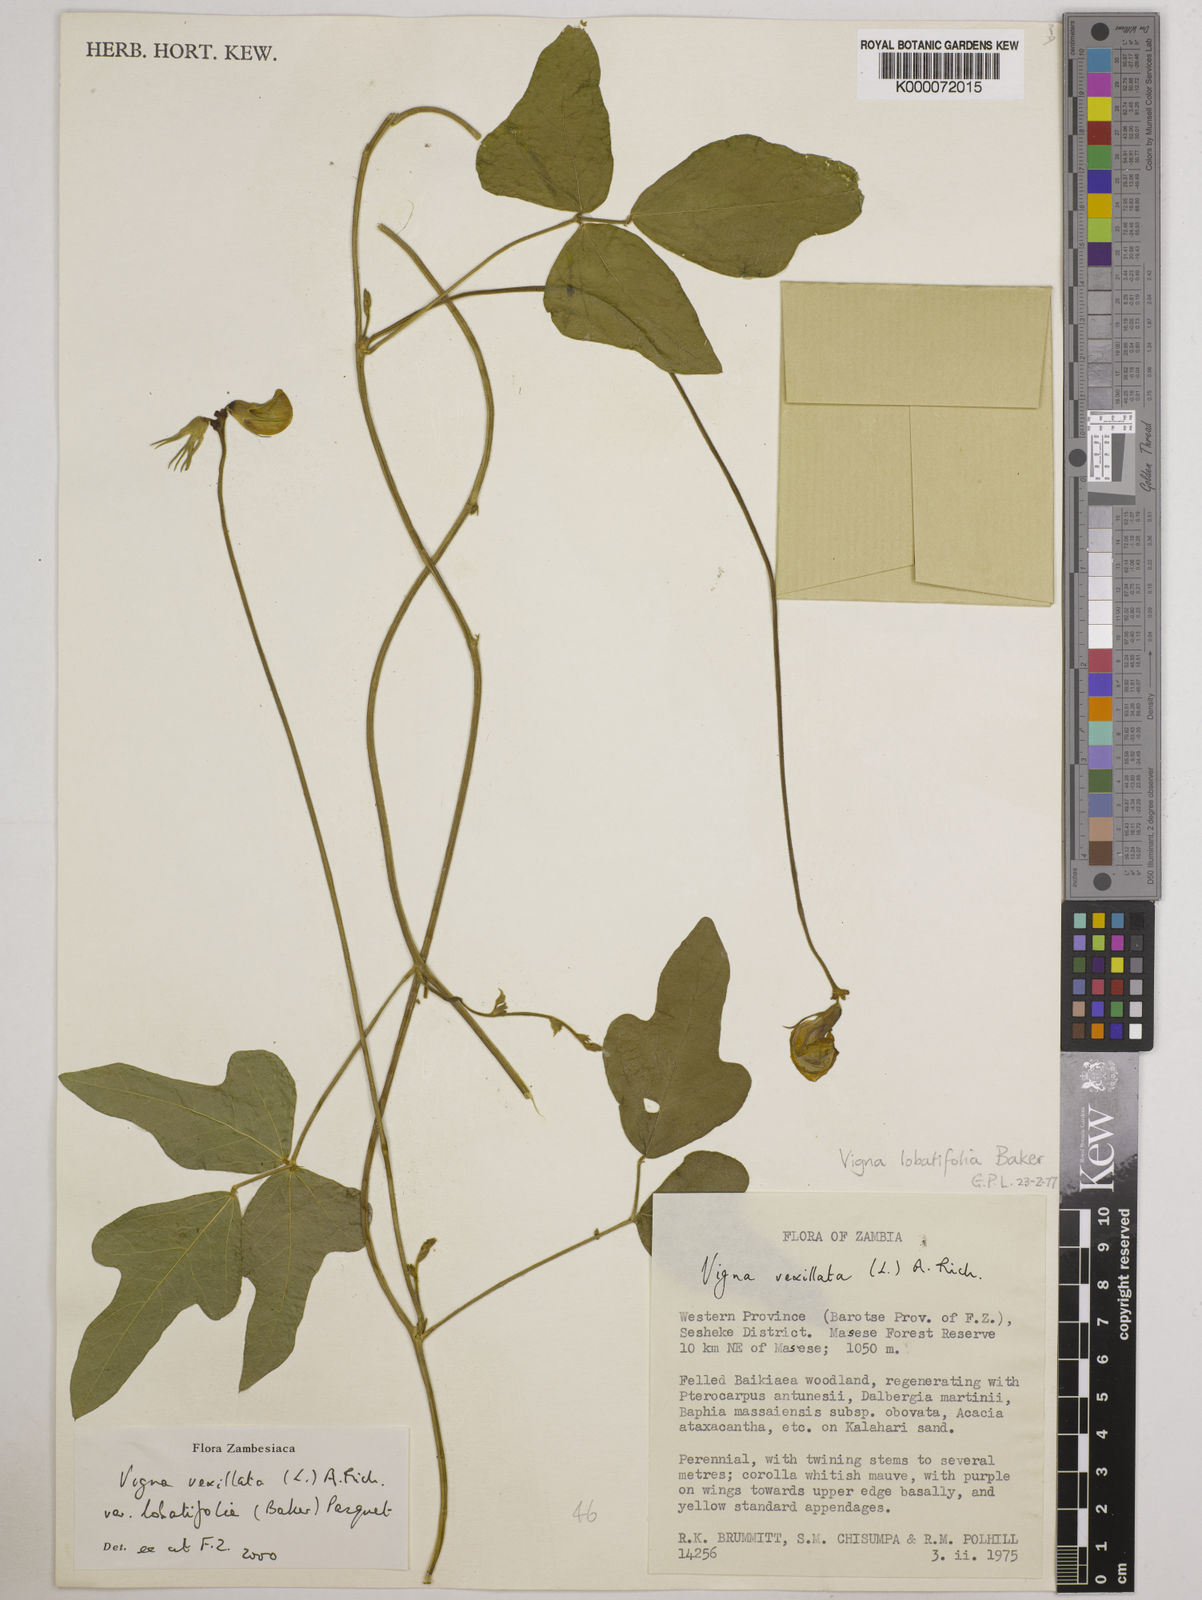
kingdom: Plantae
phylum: Tracheophyta
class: Magnoliopsida
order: Fabales
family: Fabaceae
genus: Vigna
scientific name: Vigna lobatifolia
